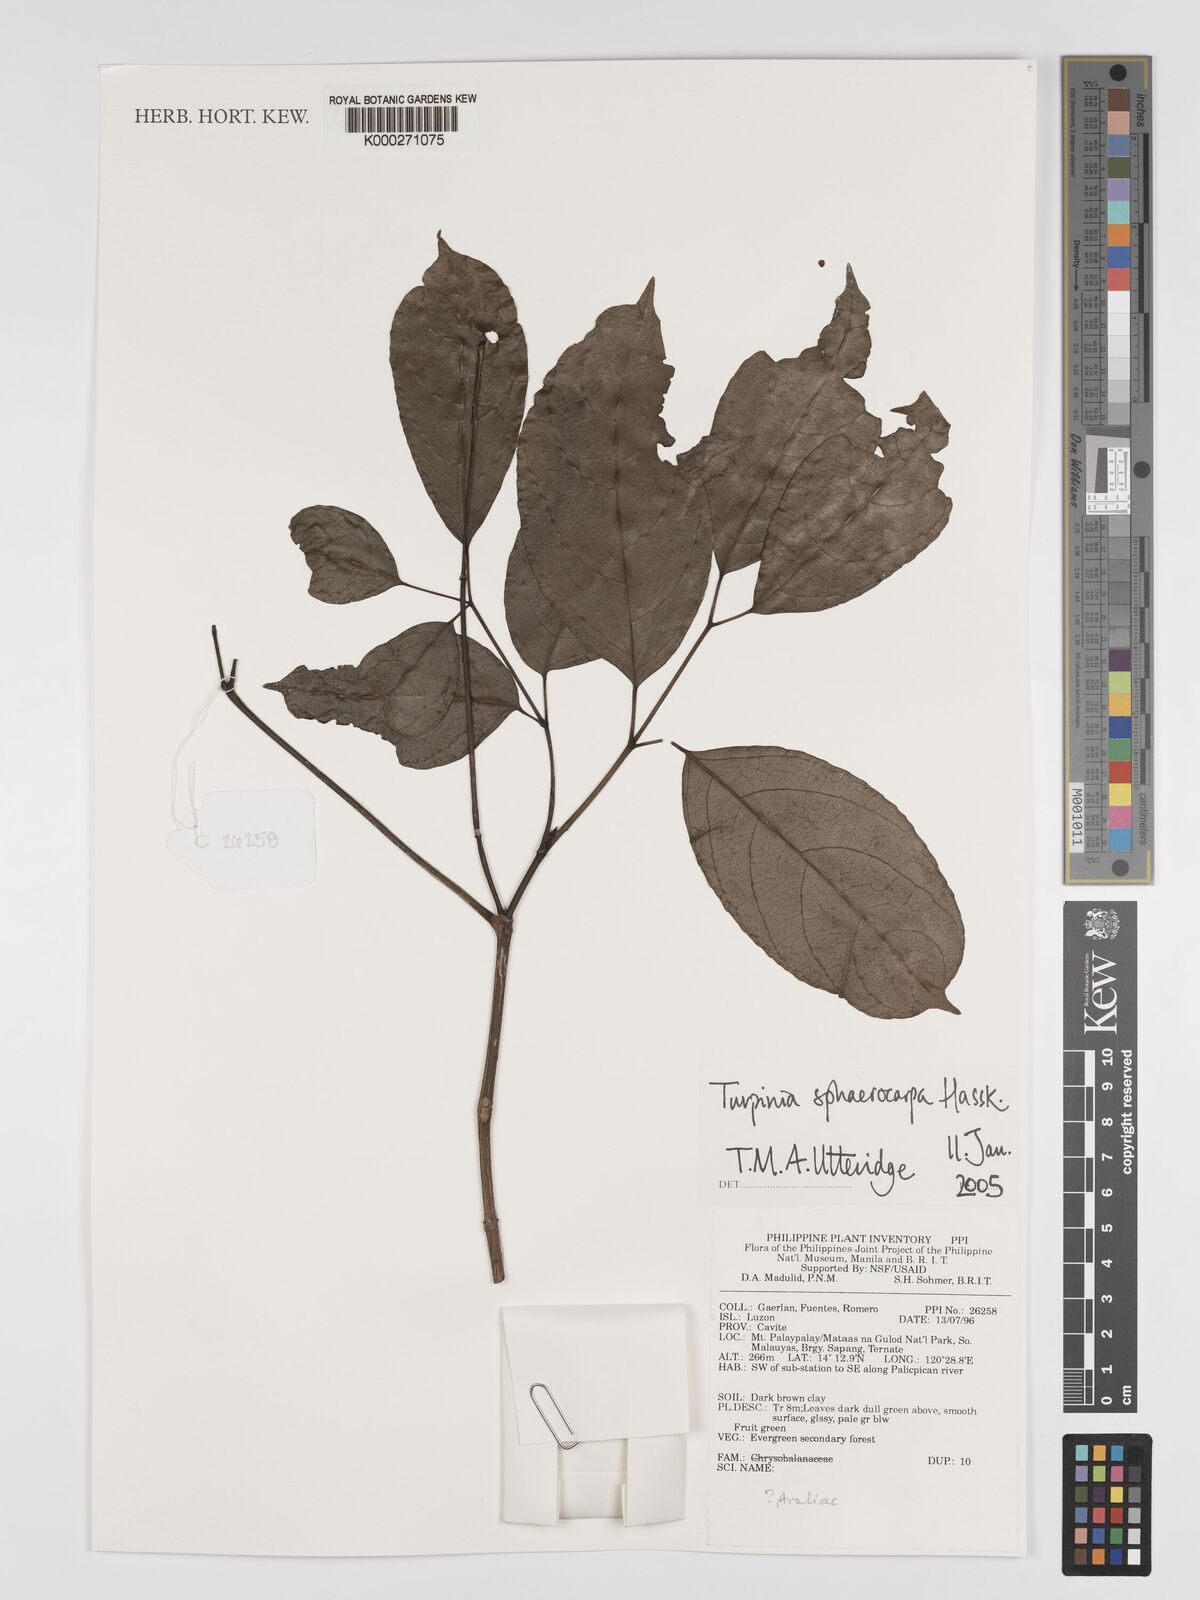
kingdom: Plantae
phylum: Tracheophyta
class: Magnoliopsida
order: Crossosomatales
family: Staphyleaceae
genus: Dalrympelea
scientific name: Dalrympelea sphaerocarpa
